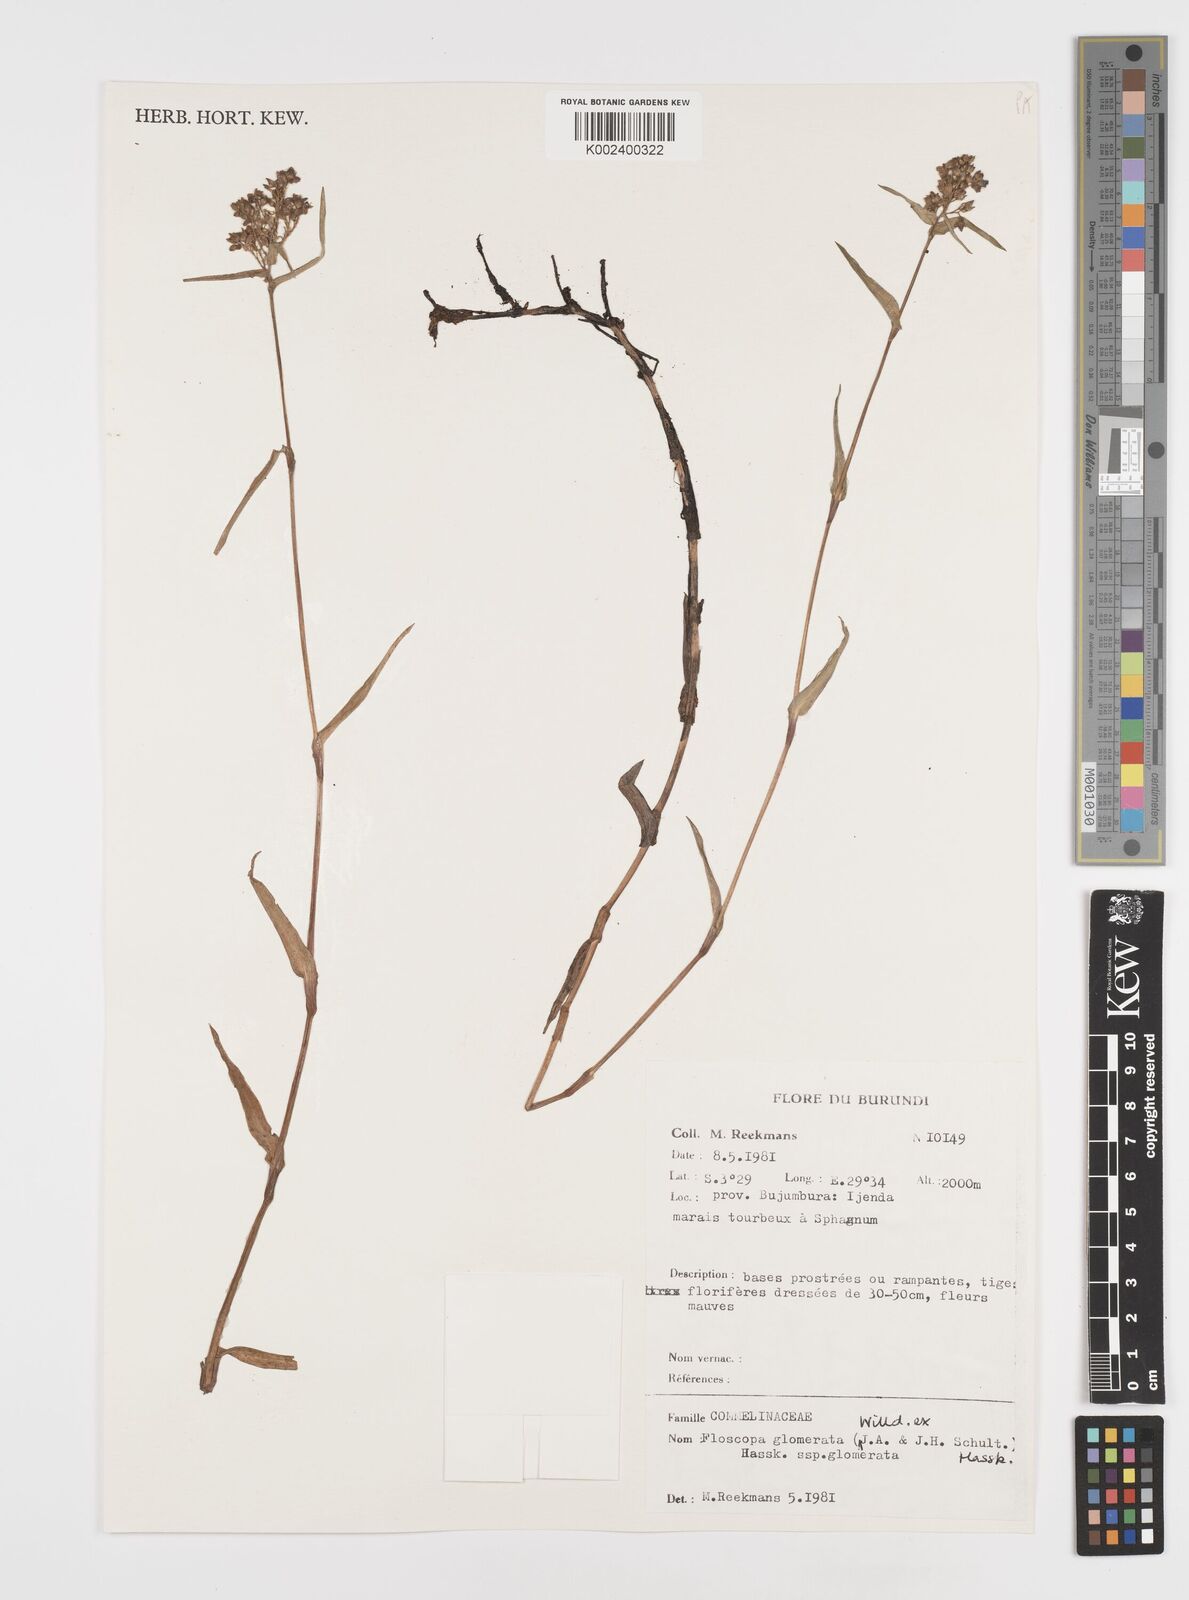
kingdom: Plantae
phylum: Tracheophyta
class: Liliopsida
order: Commelinales
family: Commelinaceae
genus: Floscopa
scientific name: Floscopa glomerata
